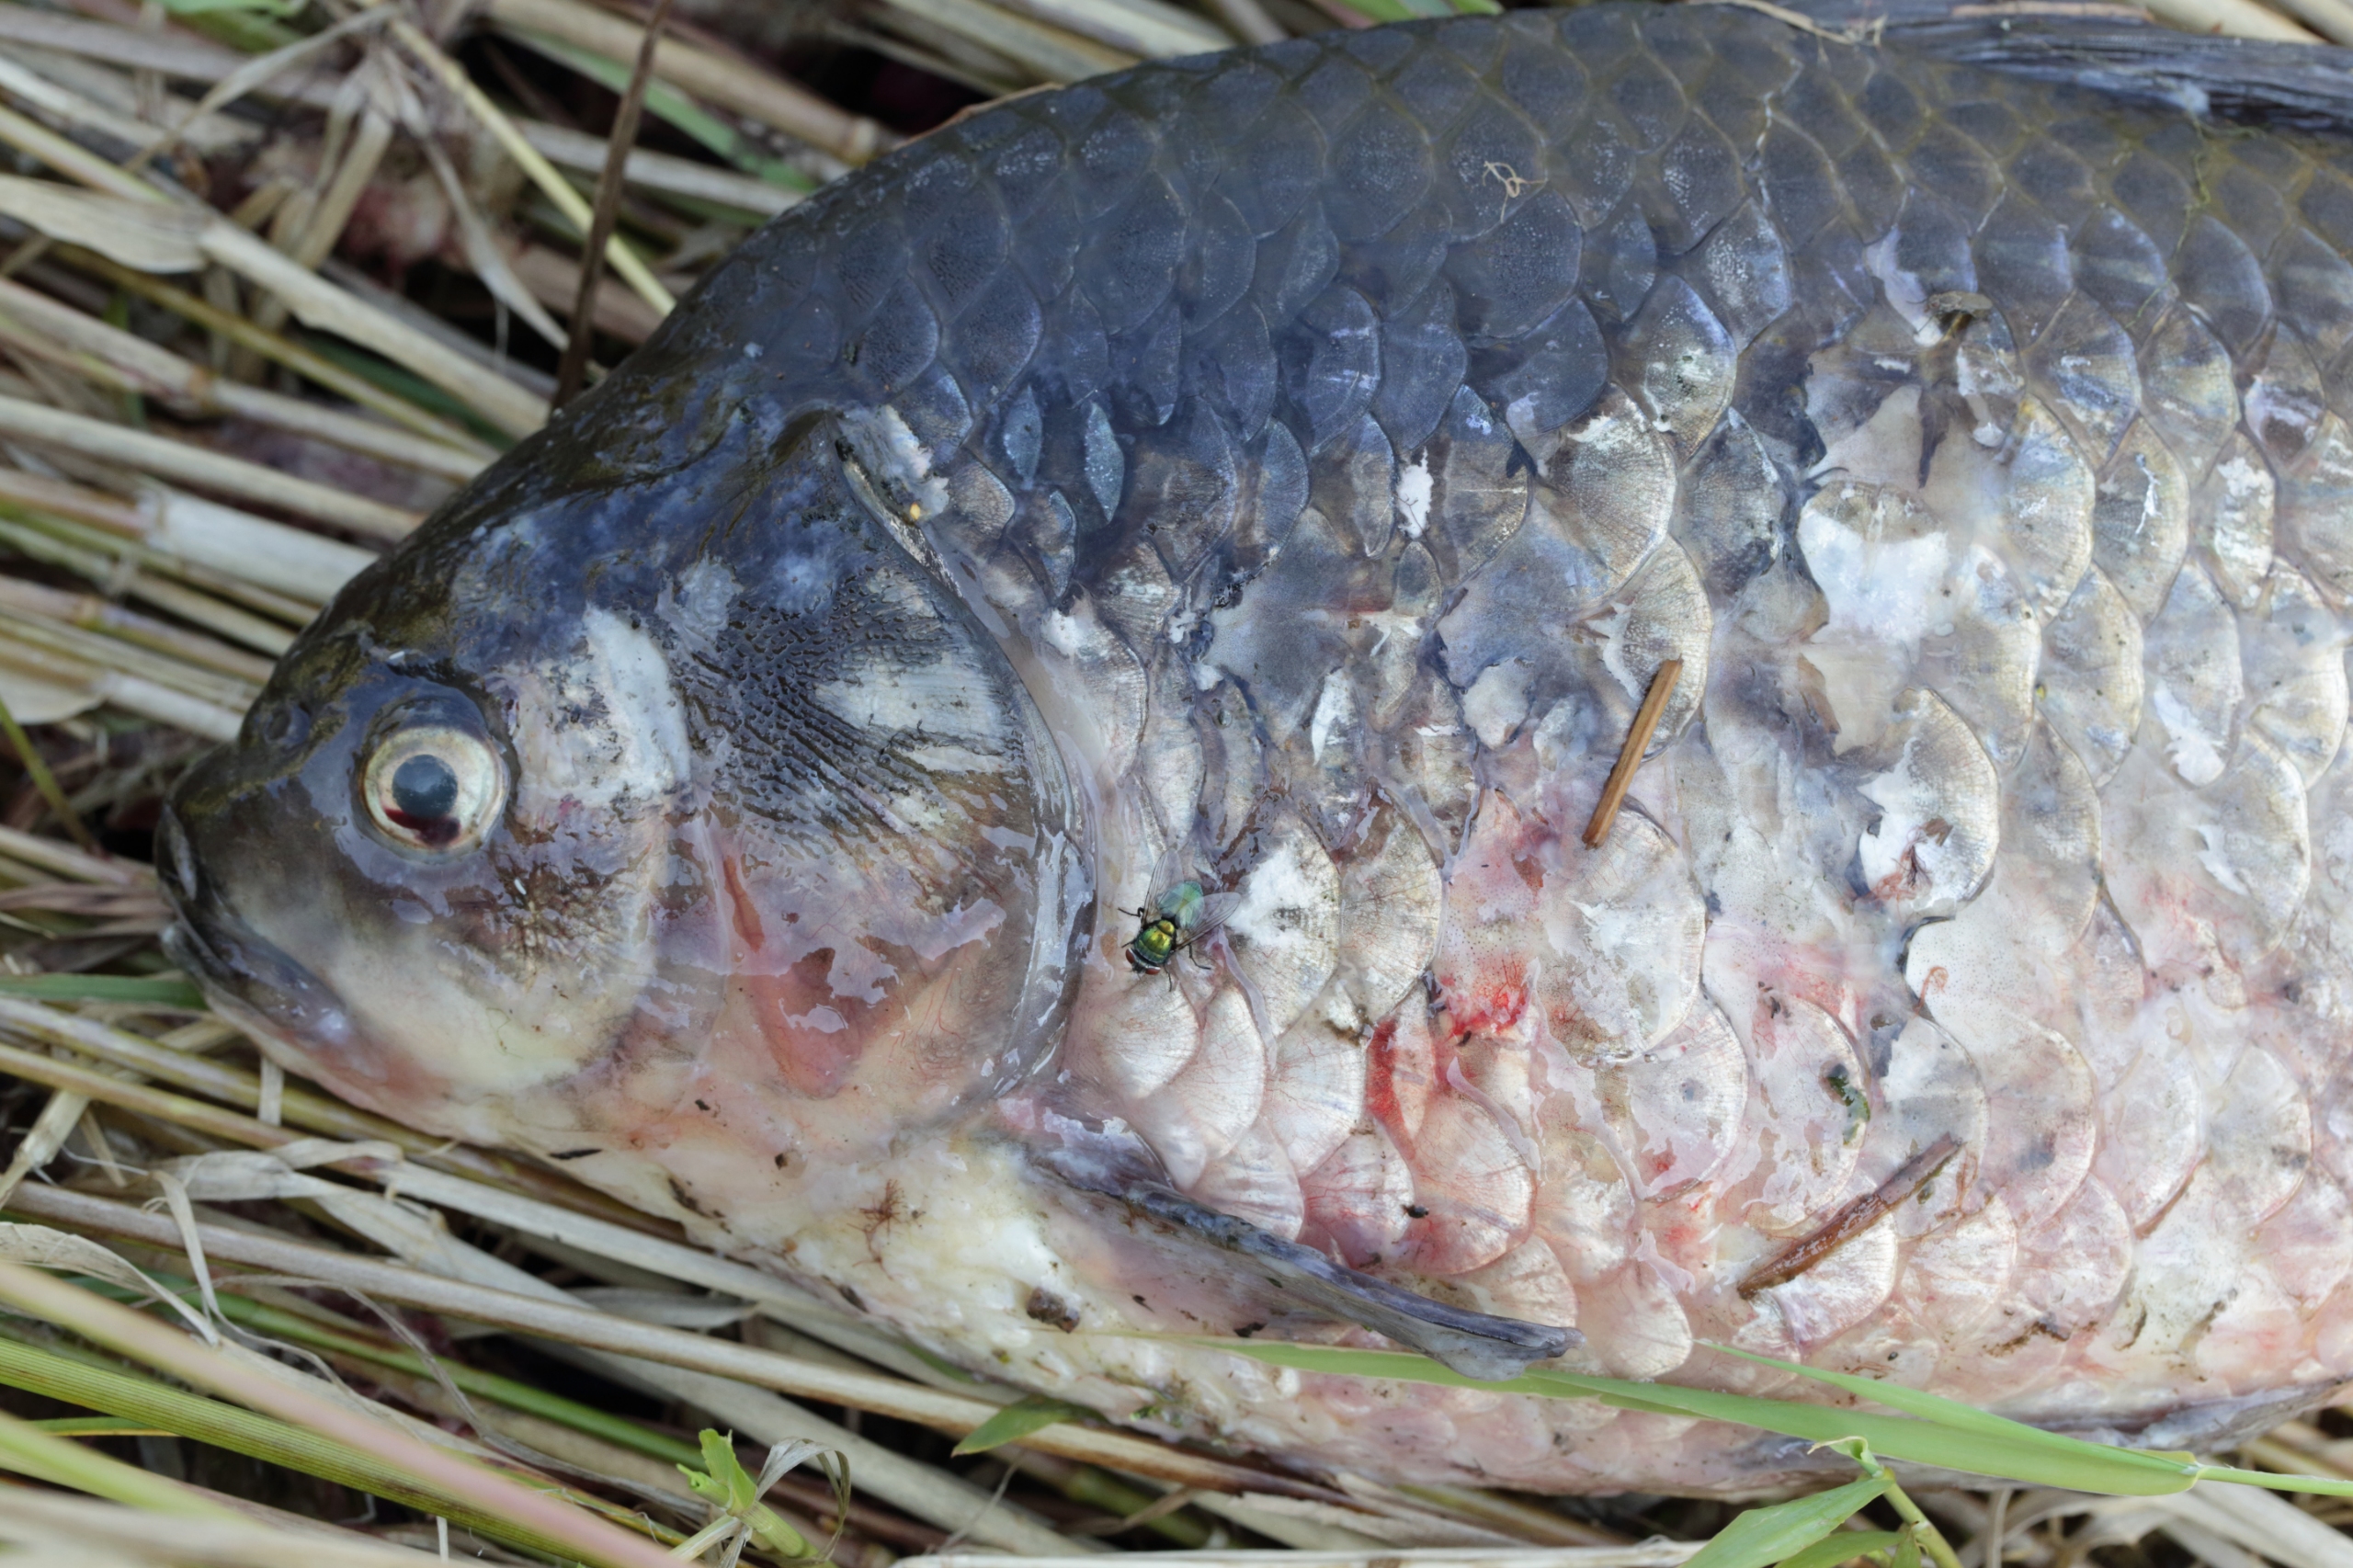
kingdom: Animalia
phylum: Chordata
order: Cypriniformes
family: Cyprinidae
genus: Carassius
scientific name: Carassius auratus
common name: Sølvkarusse
